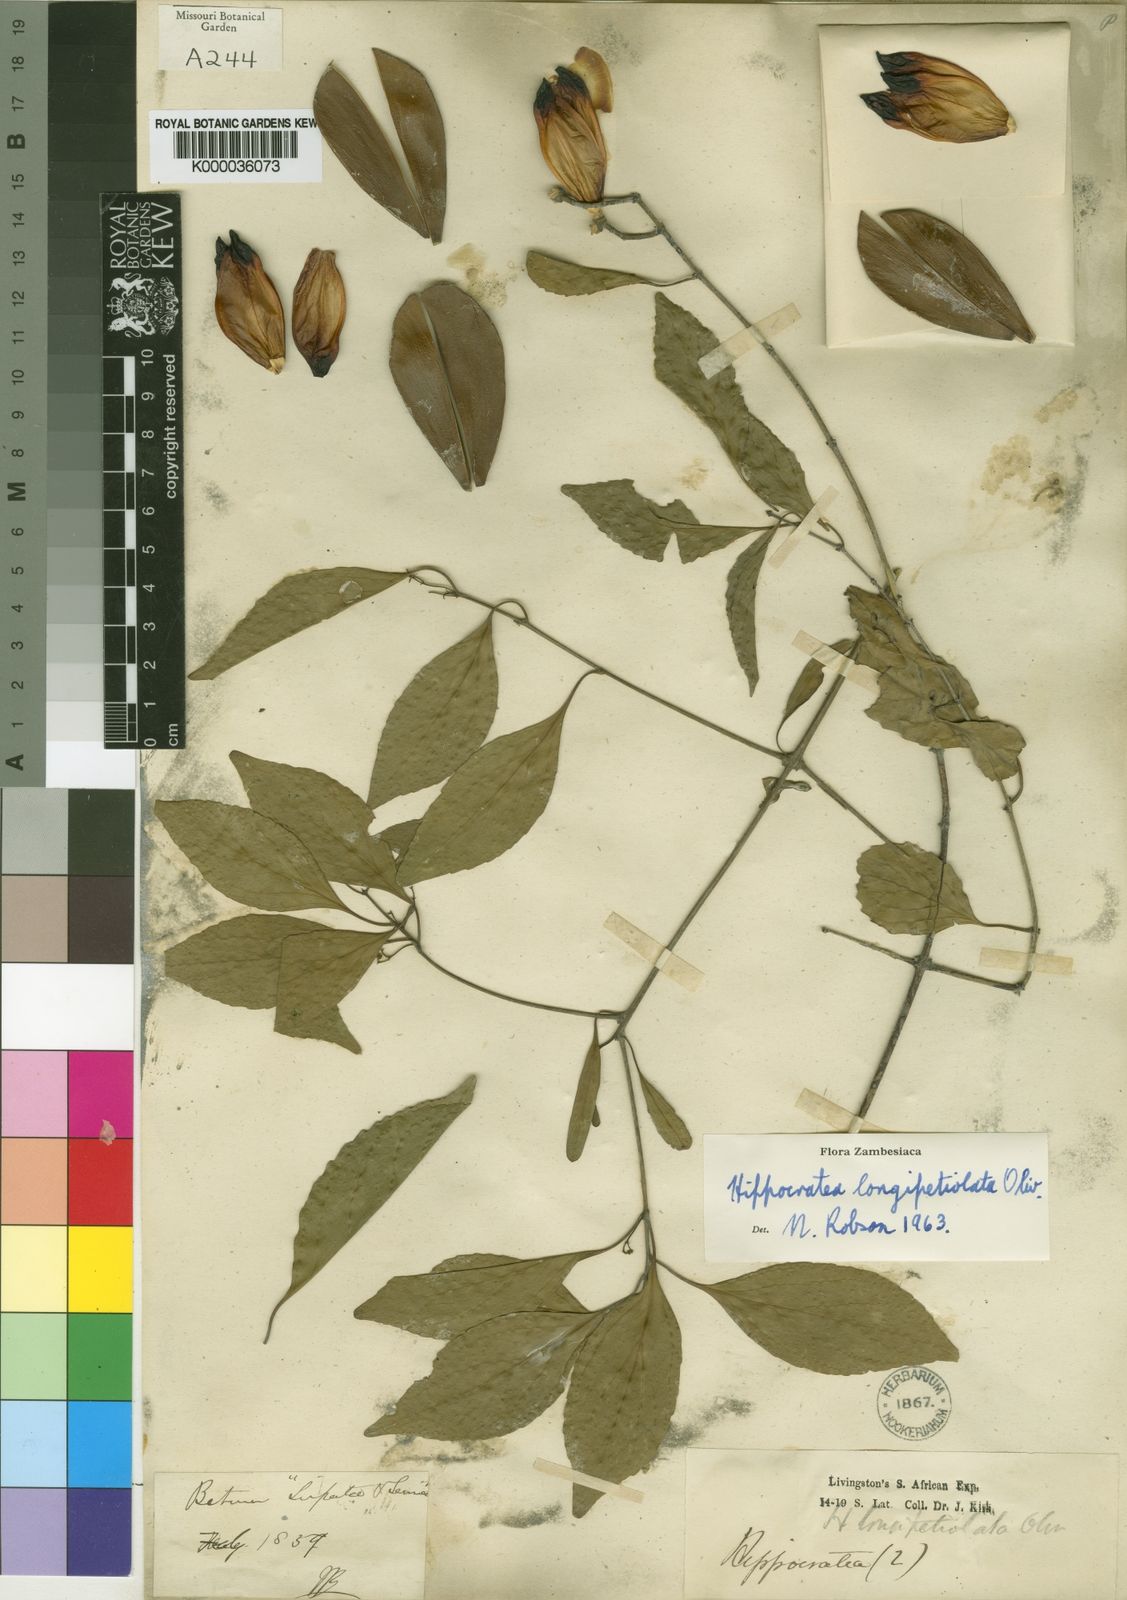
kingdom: Plantae
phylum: Tracheophyta
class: Magnoliopsida
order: Celastrales
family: Celastraceae
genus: Pristimera
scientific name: Pristimera
